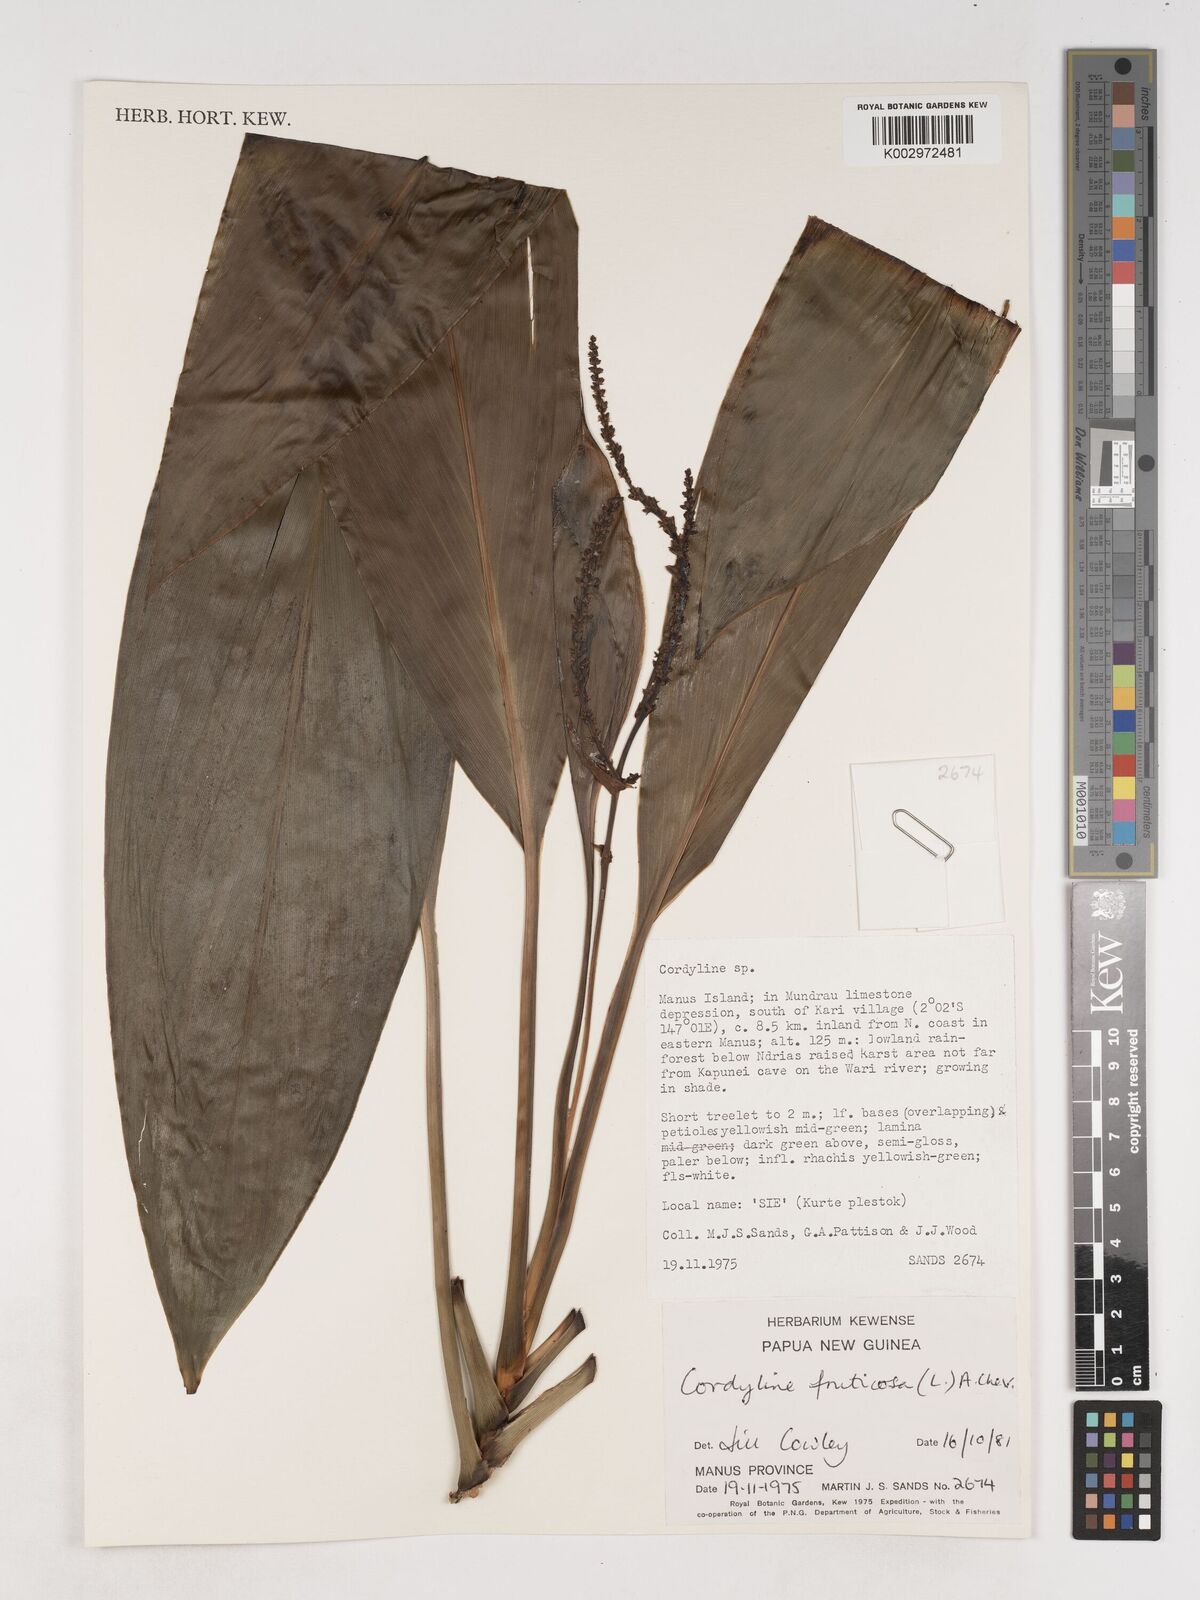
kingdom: Plantae
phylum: Tracheophyta
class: Liliopsida
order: Asparagales
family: Asparagaceae
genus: Cordyline
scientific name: Cordyline fruticosa
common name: Good-luck-plant
